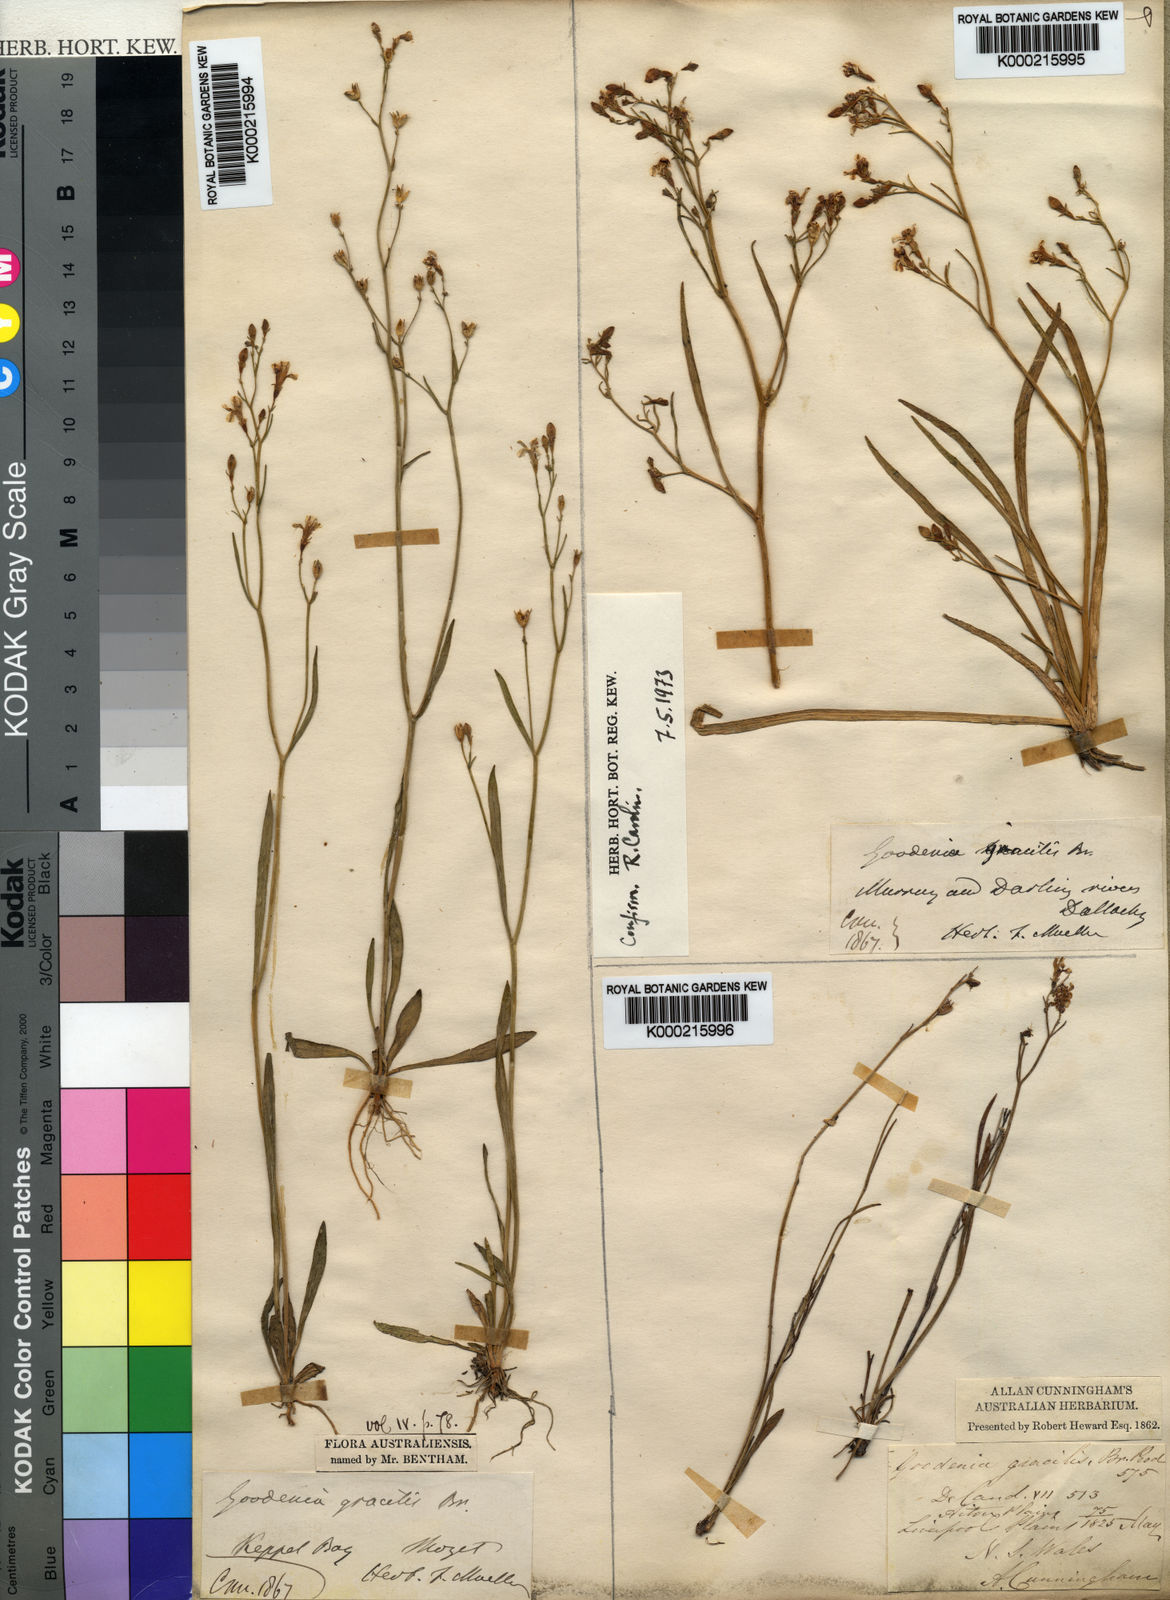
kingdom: Plantae
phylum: Tracheophyta
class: Magnoliopsida
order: Asterales
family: Goodeniaceae
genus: Goodenia
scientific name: Goodenia gracilis
